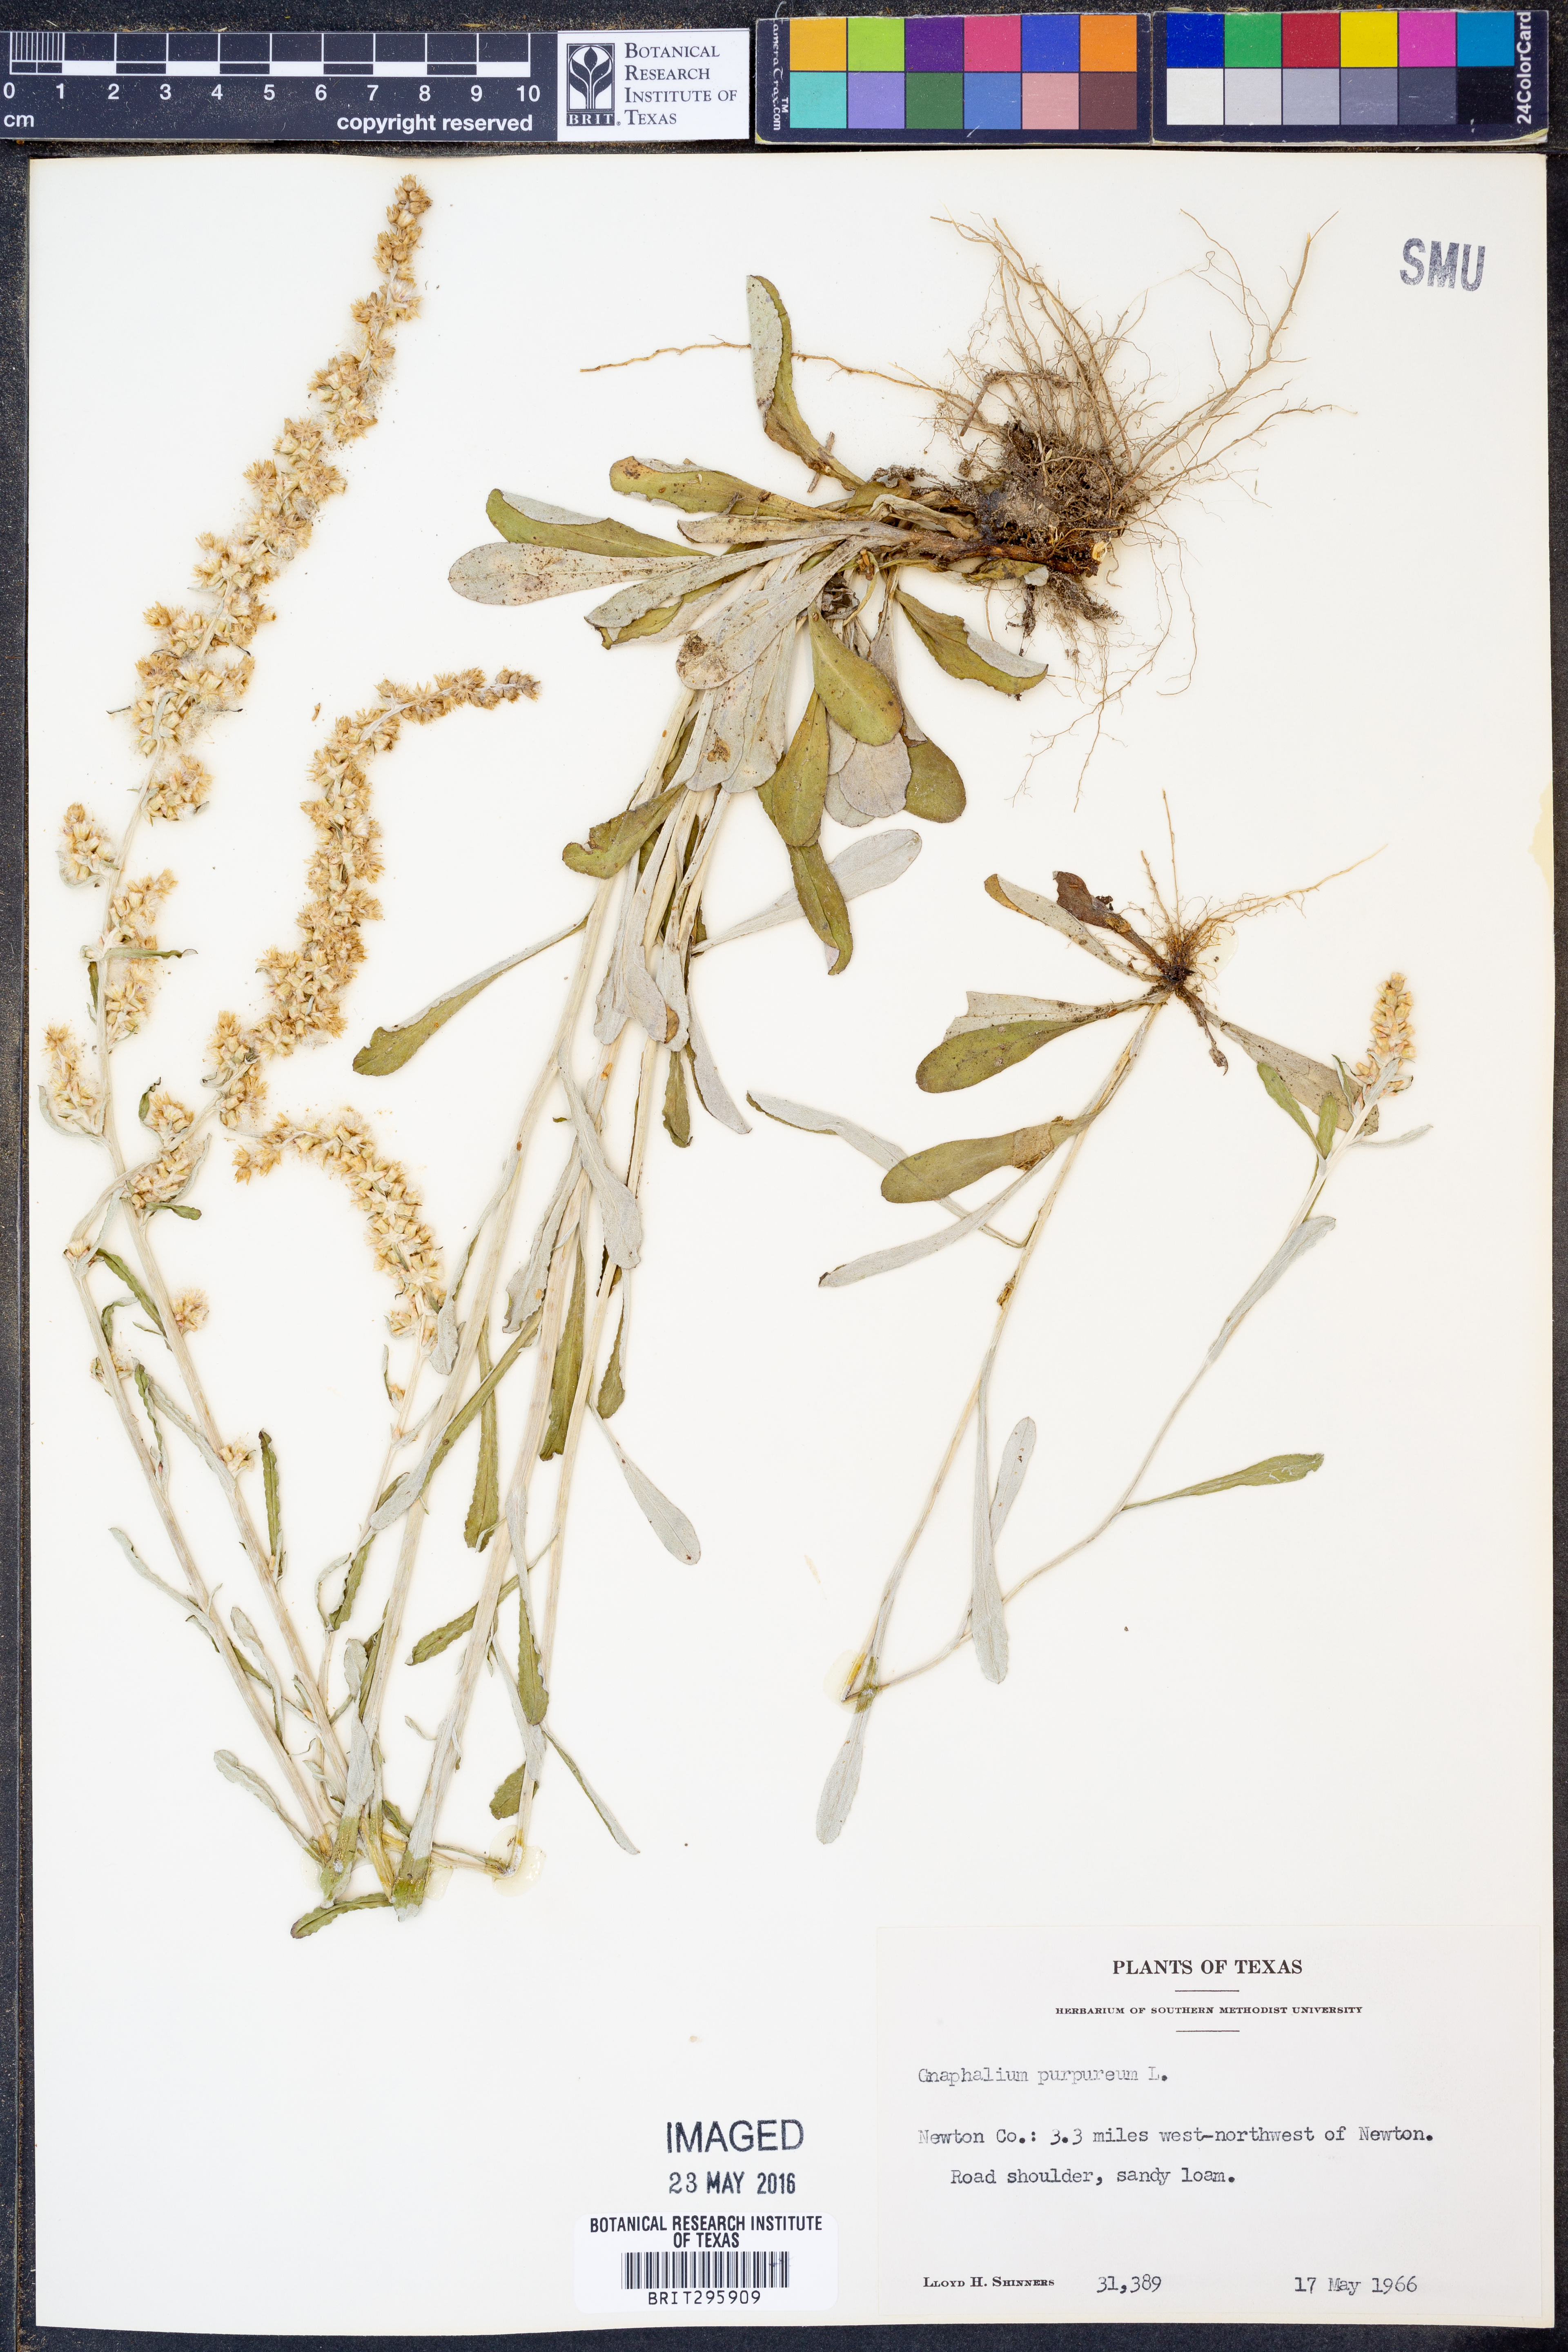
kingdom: Plantae
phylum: Tracheophyta
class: Magnoliopsida
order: Asterales
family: Asteraceae
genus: Gamochaeta
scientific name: Gamochaeta purpurea
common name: Purple cudweed
